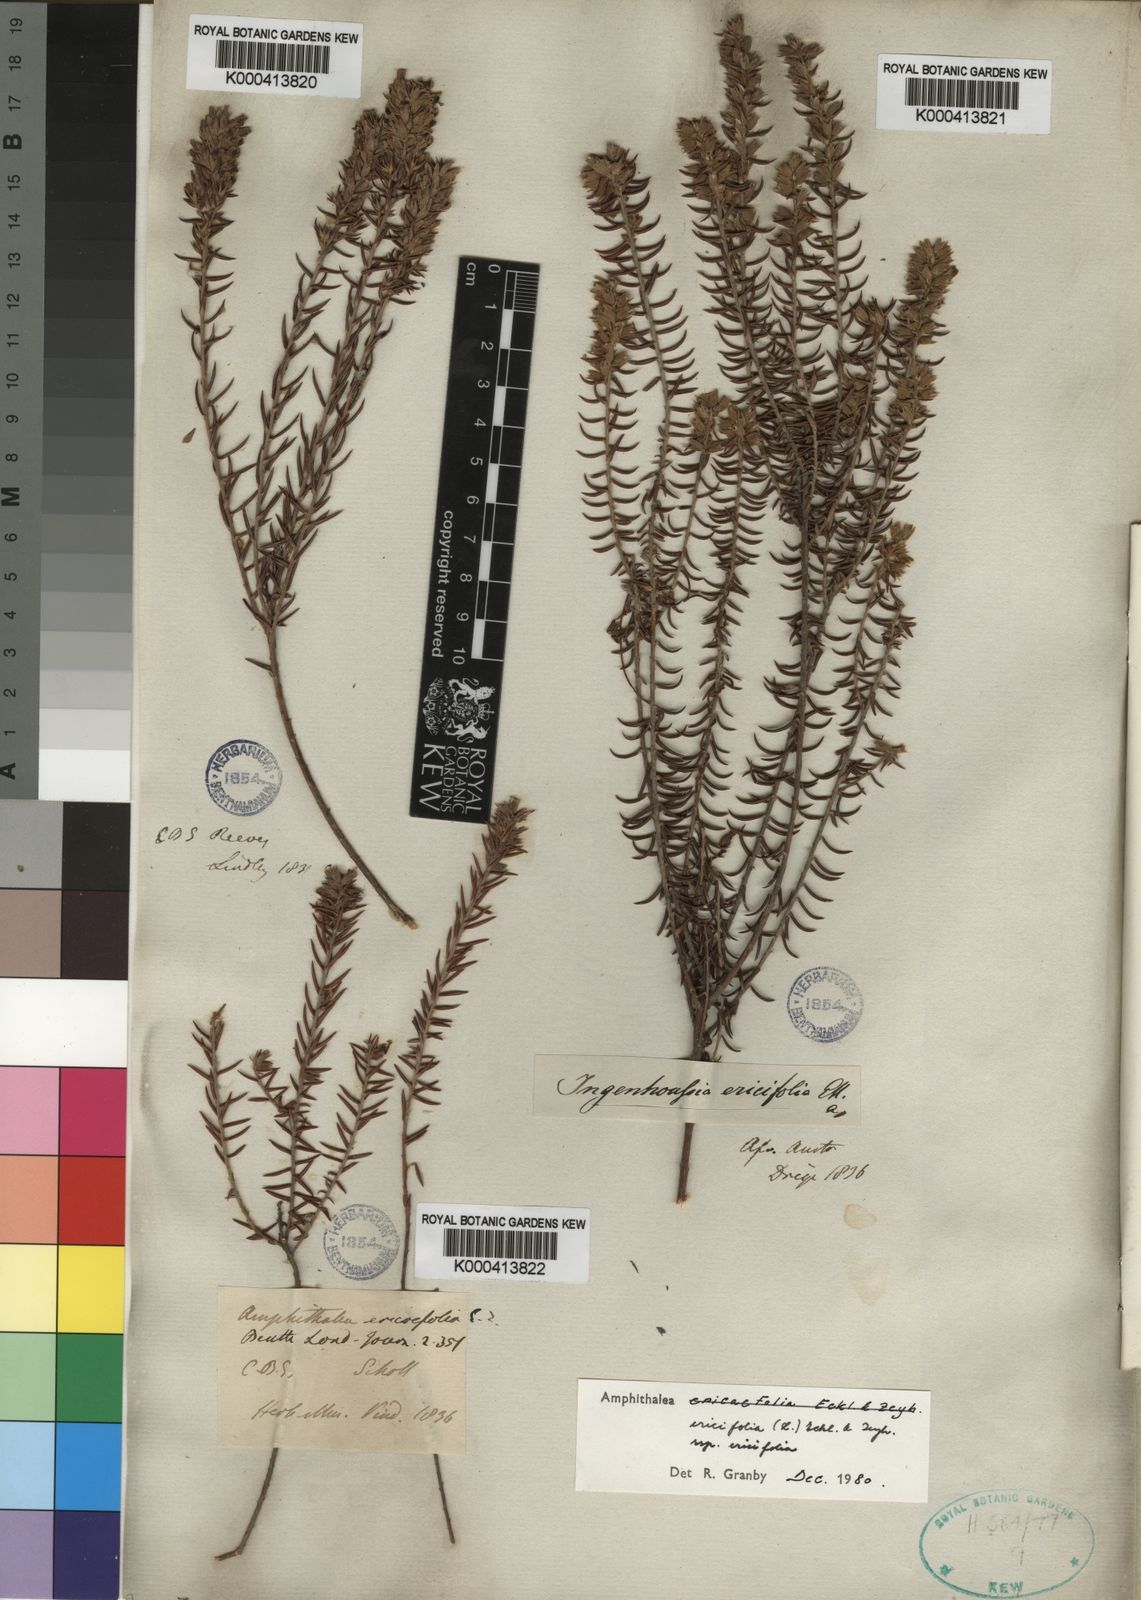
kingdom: Plantae
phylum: Tracheophyta
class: Magnoliopsida
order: Fabales
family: Fabaceae
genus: Amphithalea
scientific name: Amphithalea ericifolia
